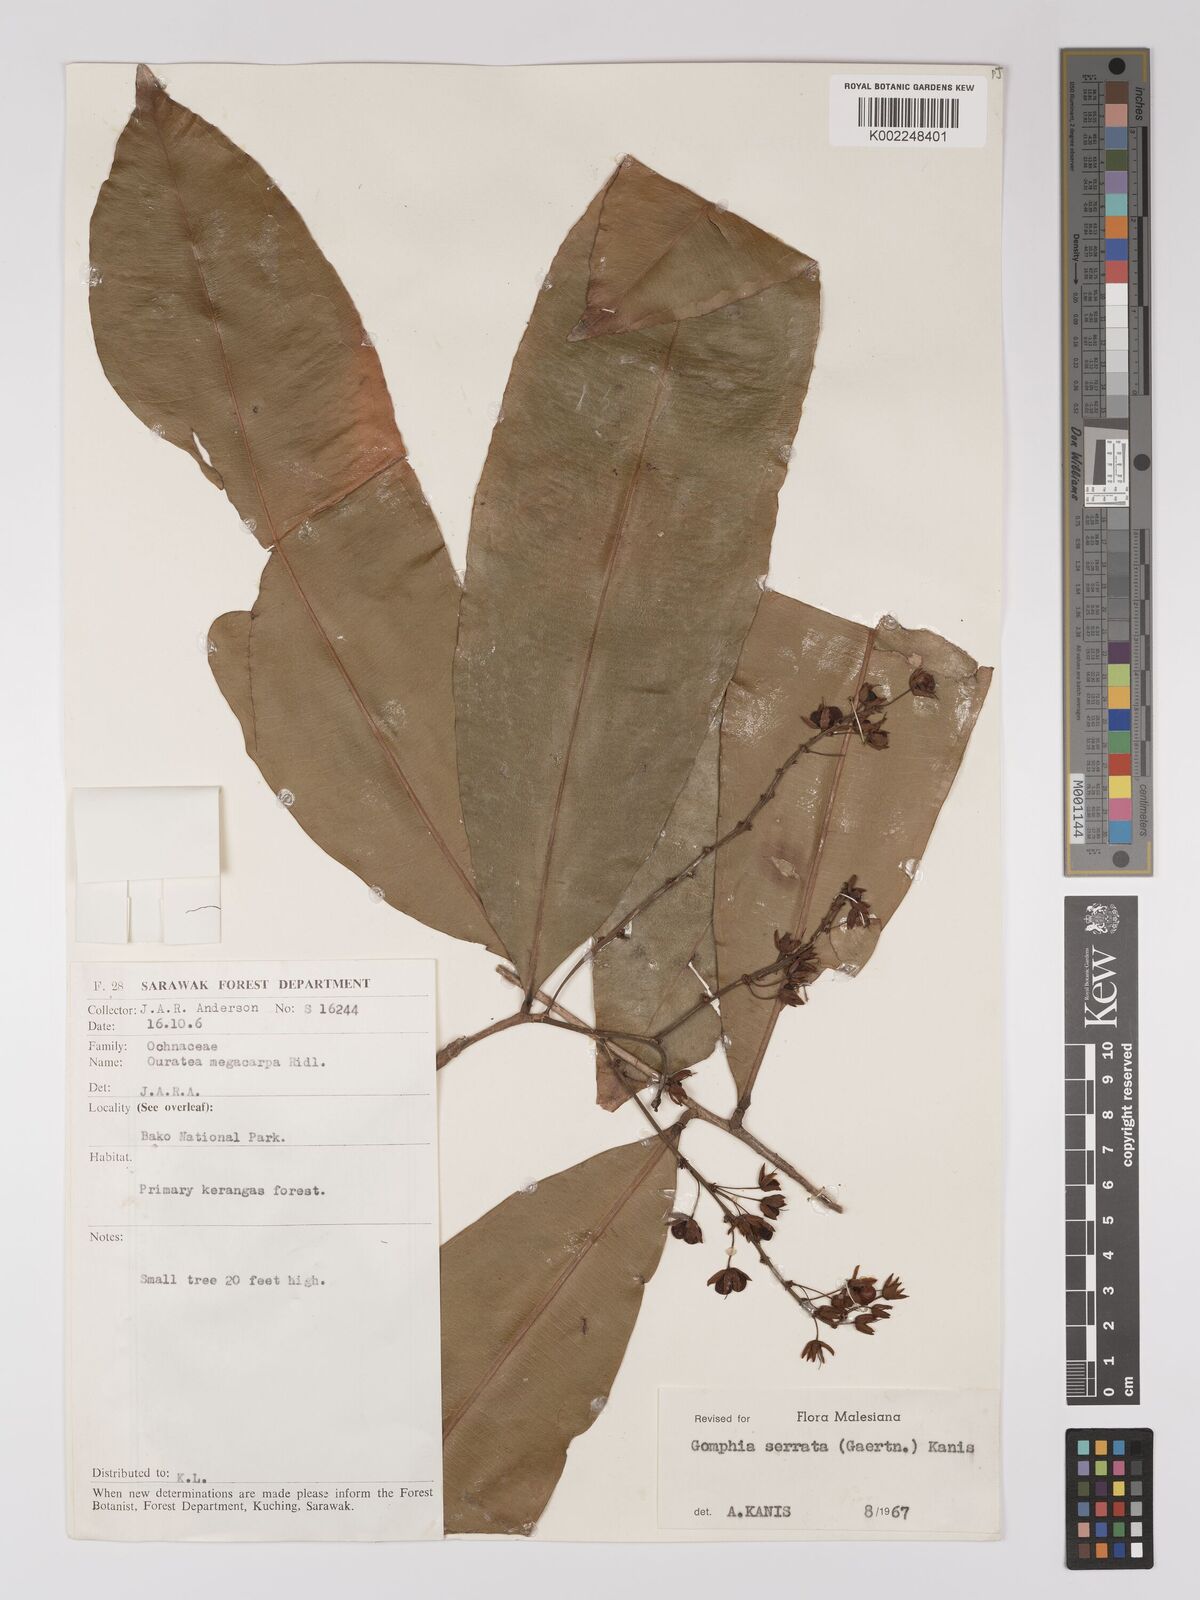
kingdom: Plantae
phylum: Tracheophyta
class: Magnoliopsida
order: Malpighiales
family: Ochnaceae
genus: Gomphia
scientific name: Gomphia serrata
